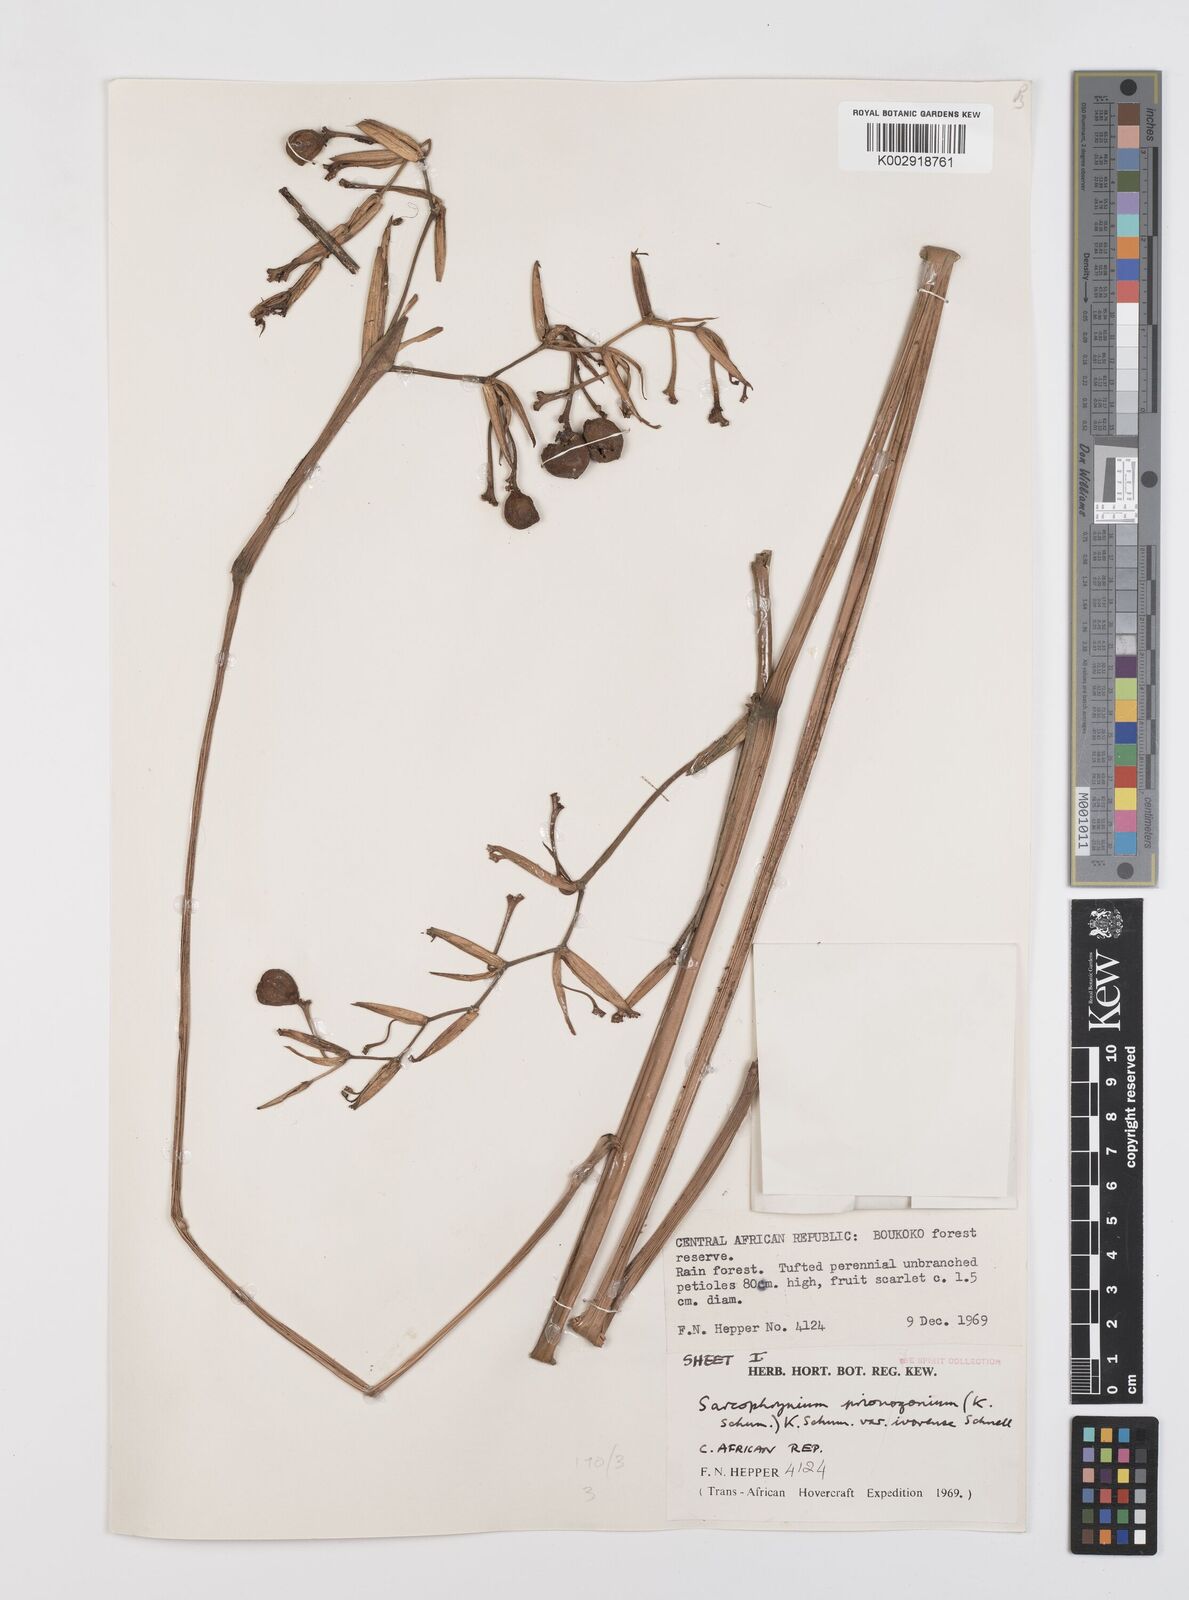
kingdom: Plantae
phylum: Tracheophyta
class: Liliopsida
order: Zingiberales
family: Marantaceae
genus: Sarcophrynium
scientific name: Sarcophrynium prionogonium
